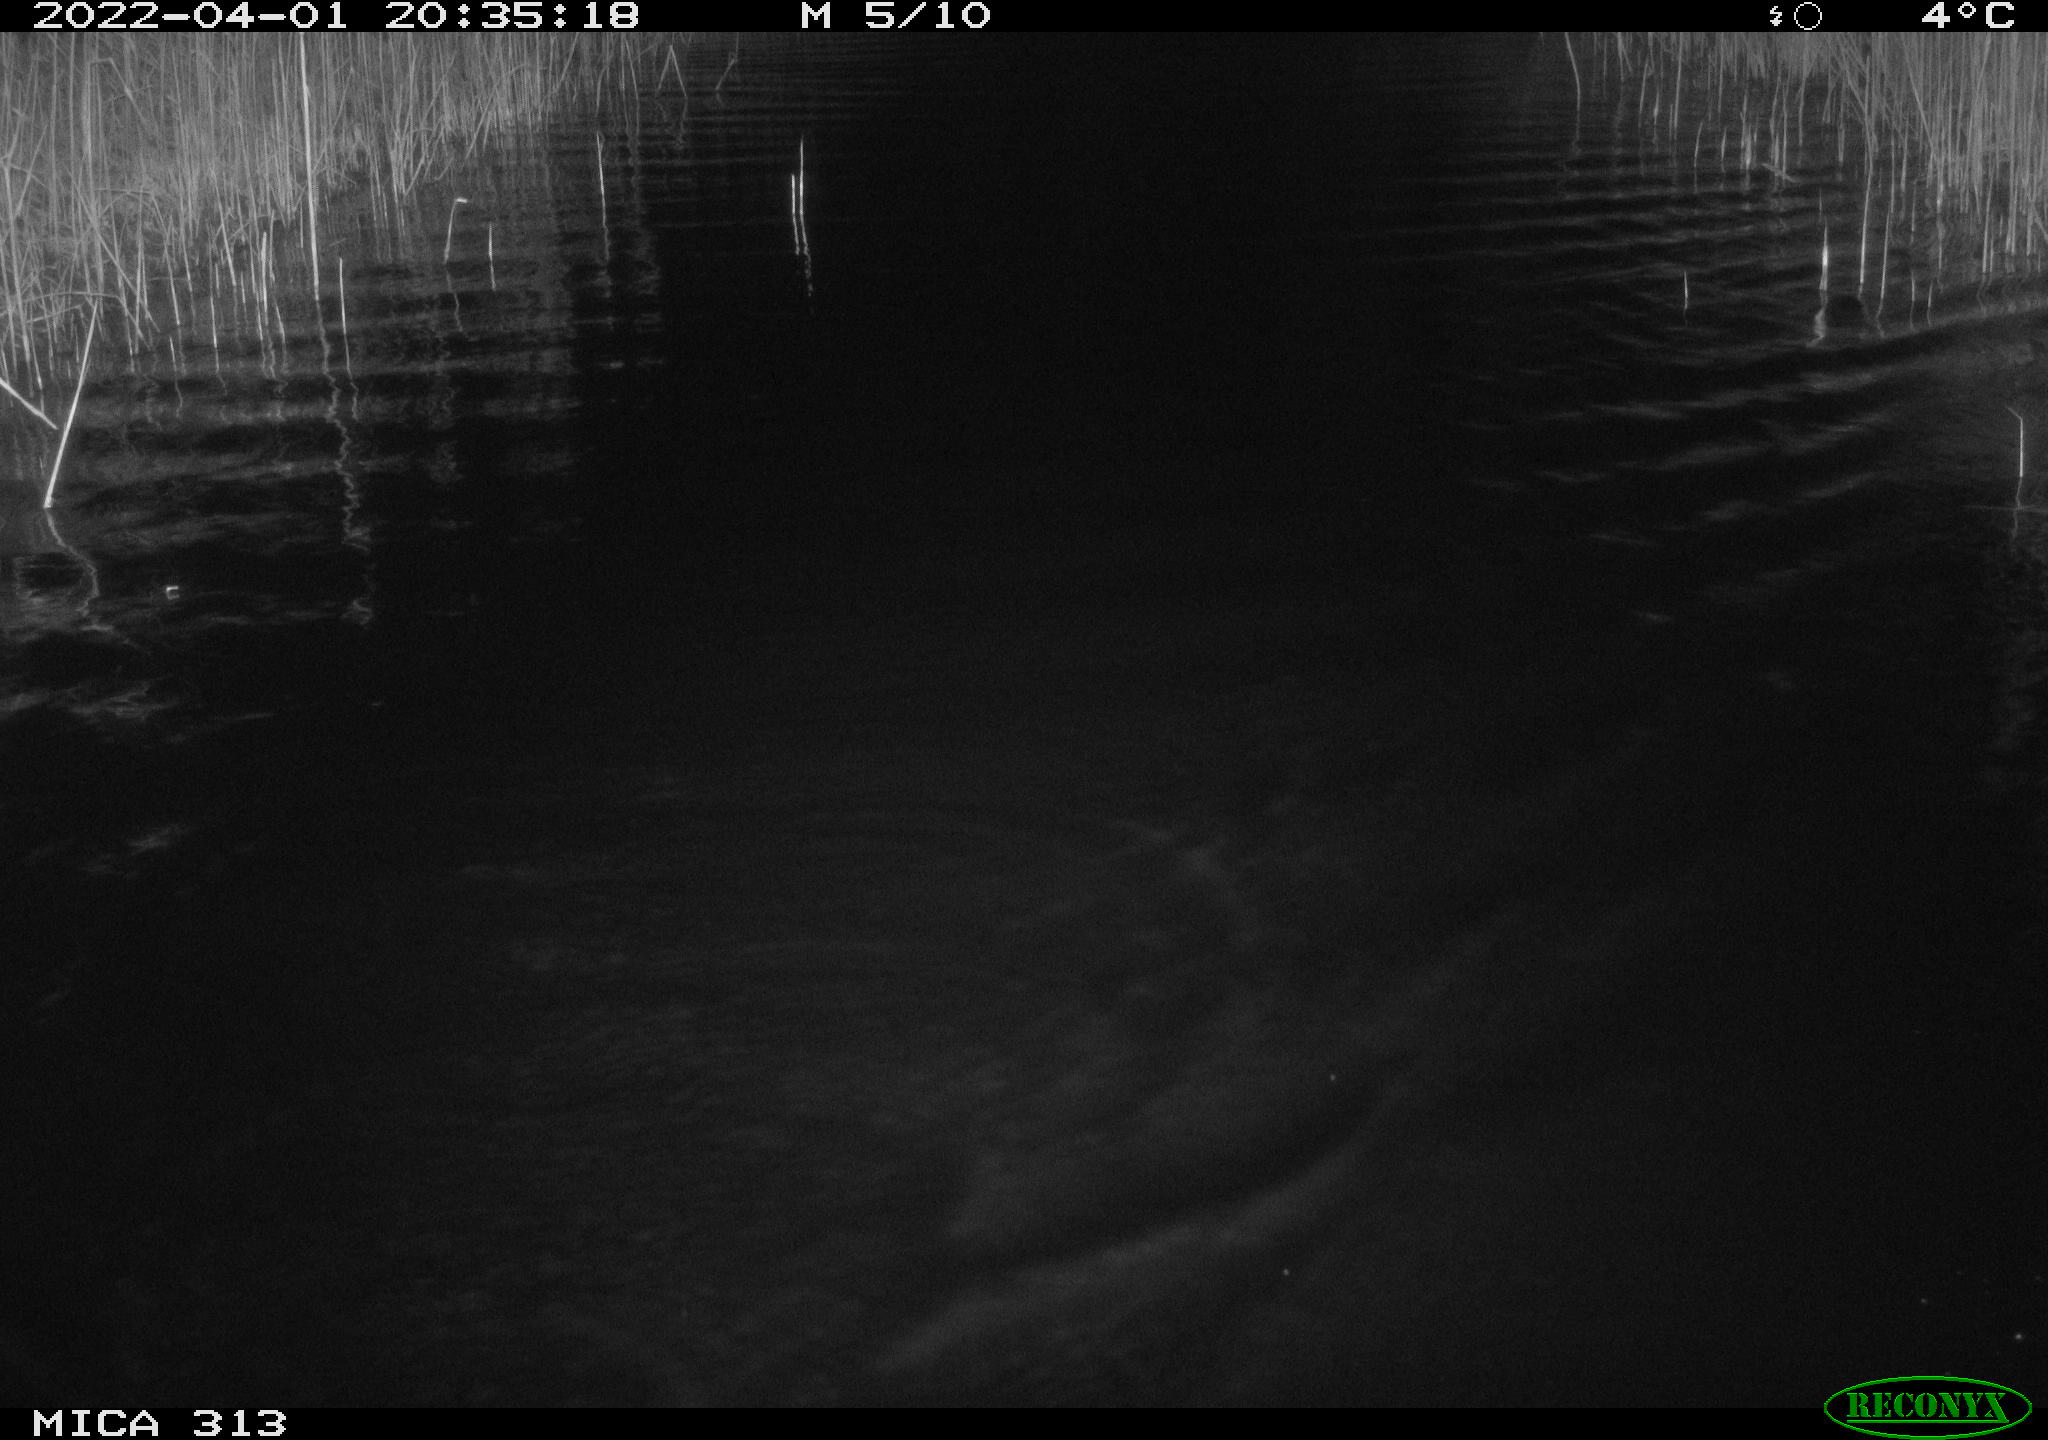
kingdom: Animalia
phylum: Chordata
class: Mammalia
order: Rodentia
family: Cricetidae
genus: Ondatra
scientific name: Ondatra zibethicus
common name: Muskrat
